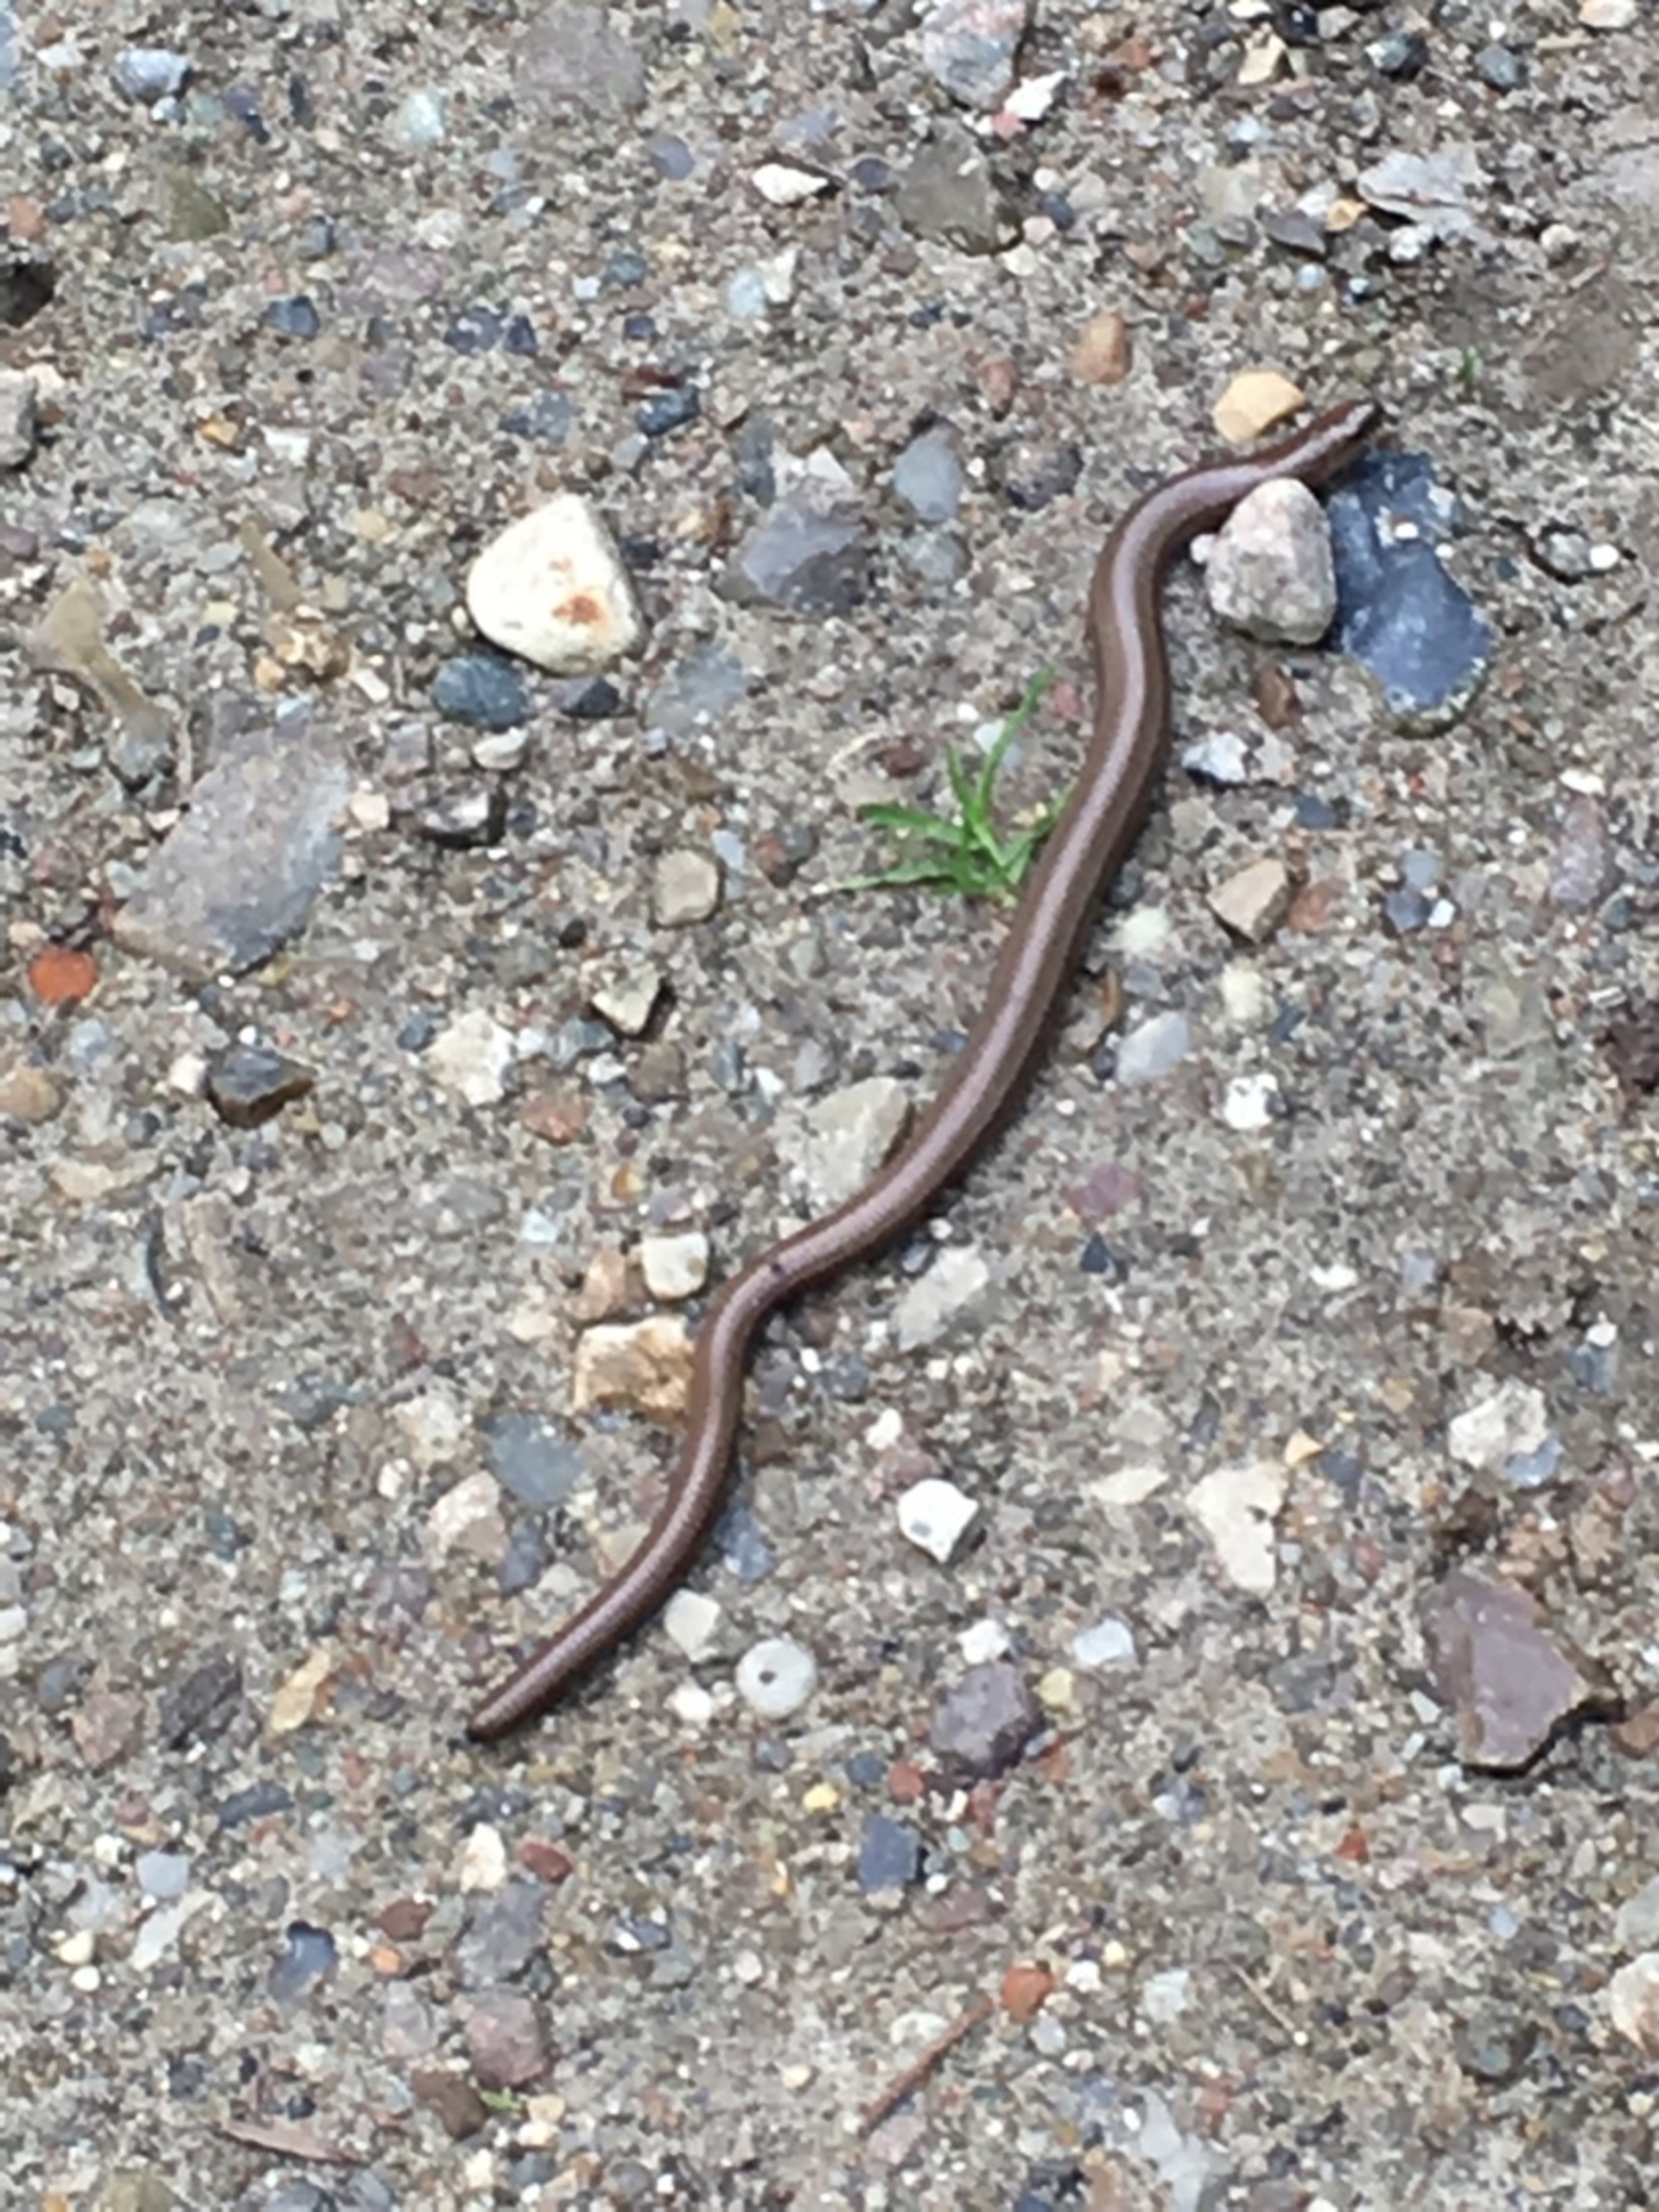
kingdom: Animalia
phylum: Chordata
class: Squamata
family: Anguidae
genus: Anguis
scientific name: Anguis fragilis
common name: Stålorm
